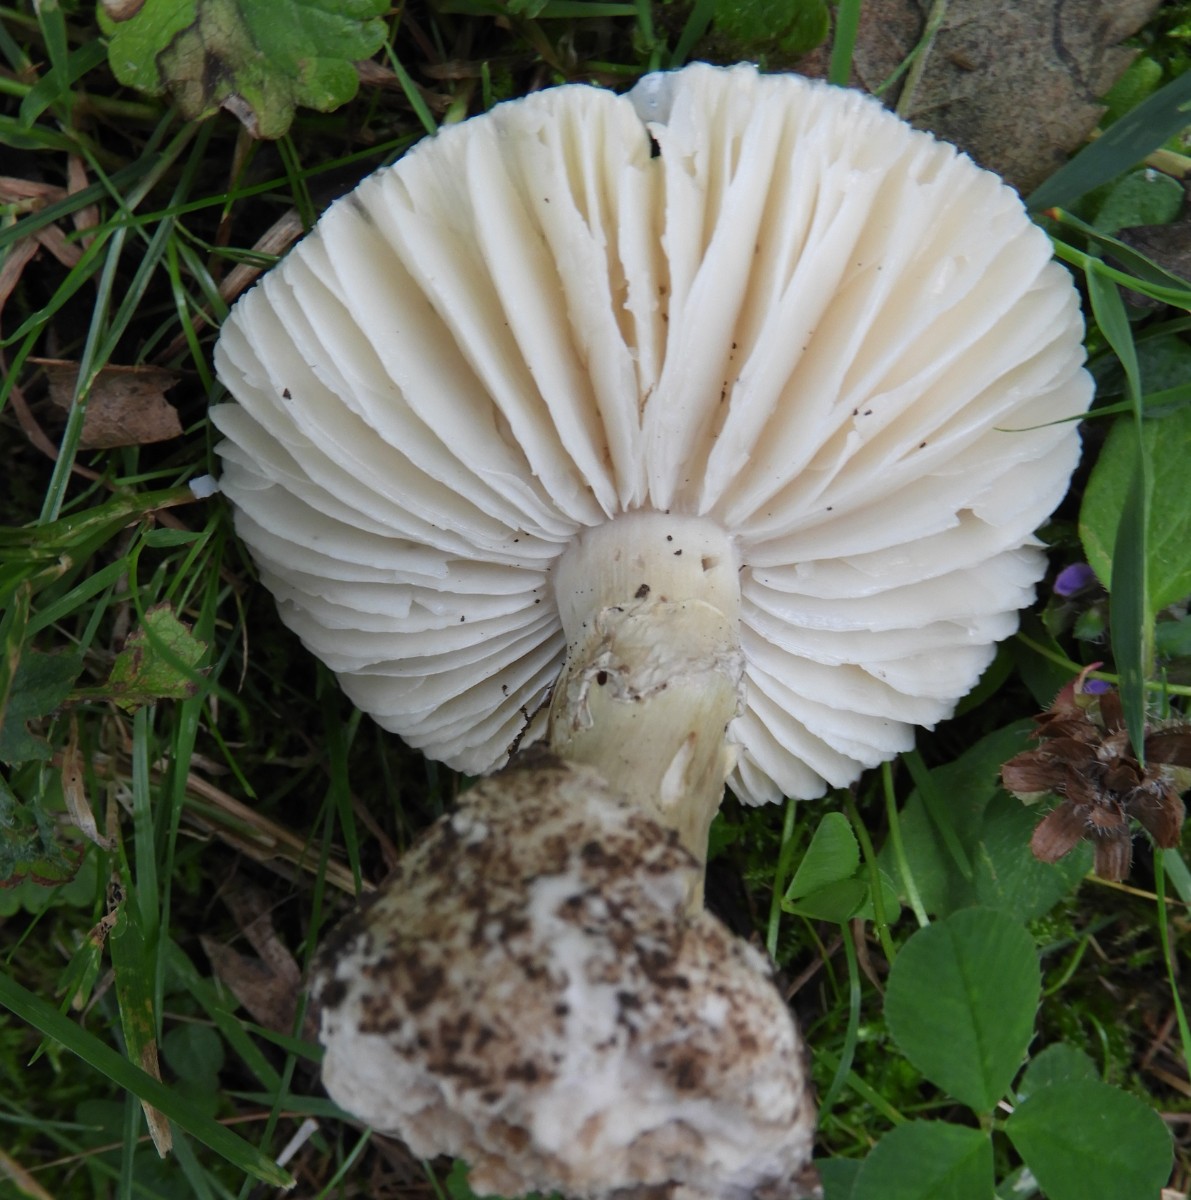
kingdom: Fungi
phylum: Basidiomycota
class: Agaricomycetes
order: Agaricales
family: Amanitaceae
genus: Amanita
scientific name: Amanita phalloides
